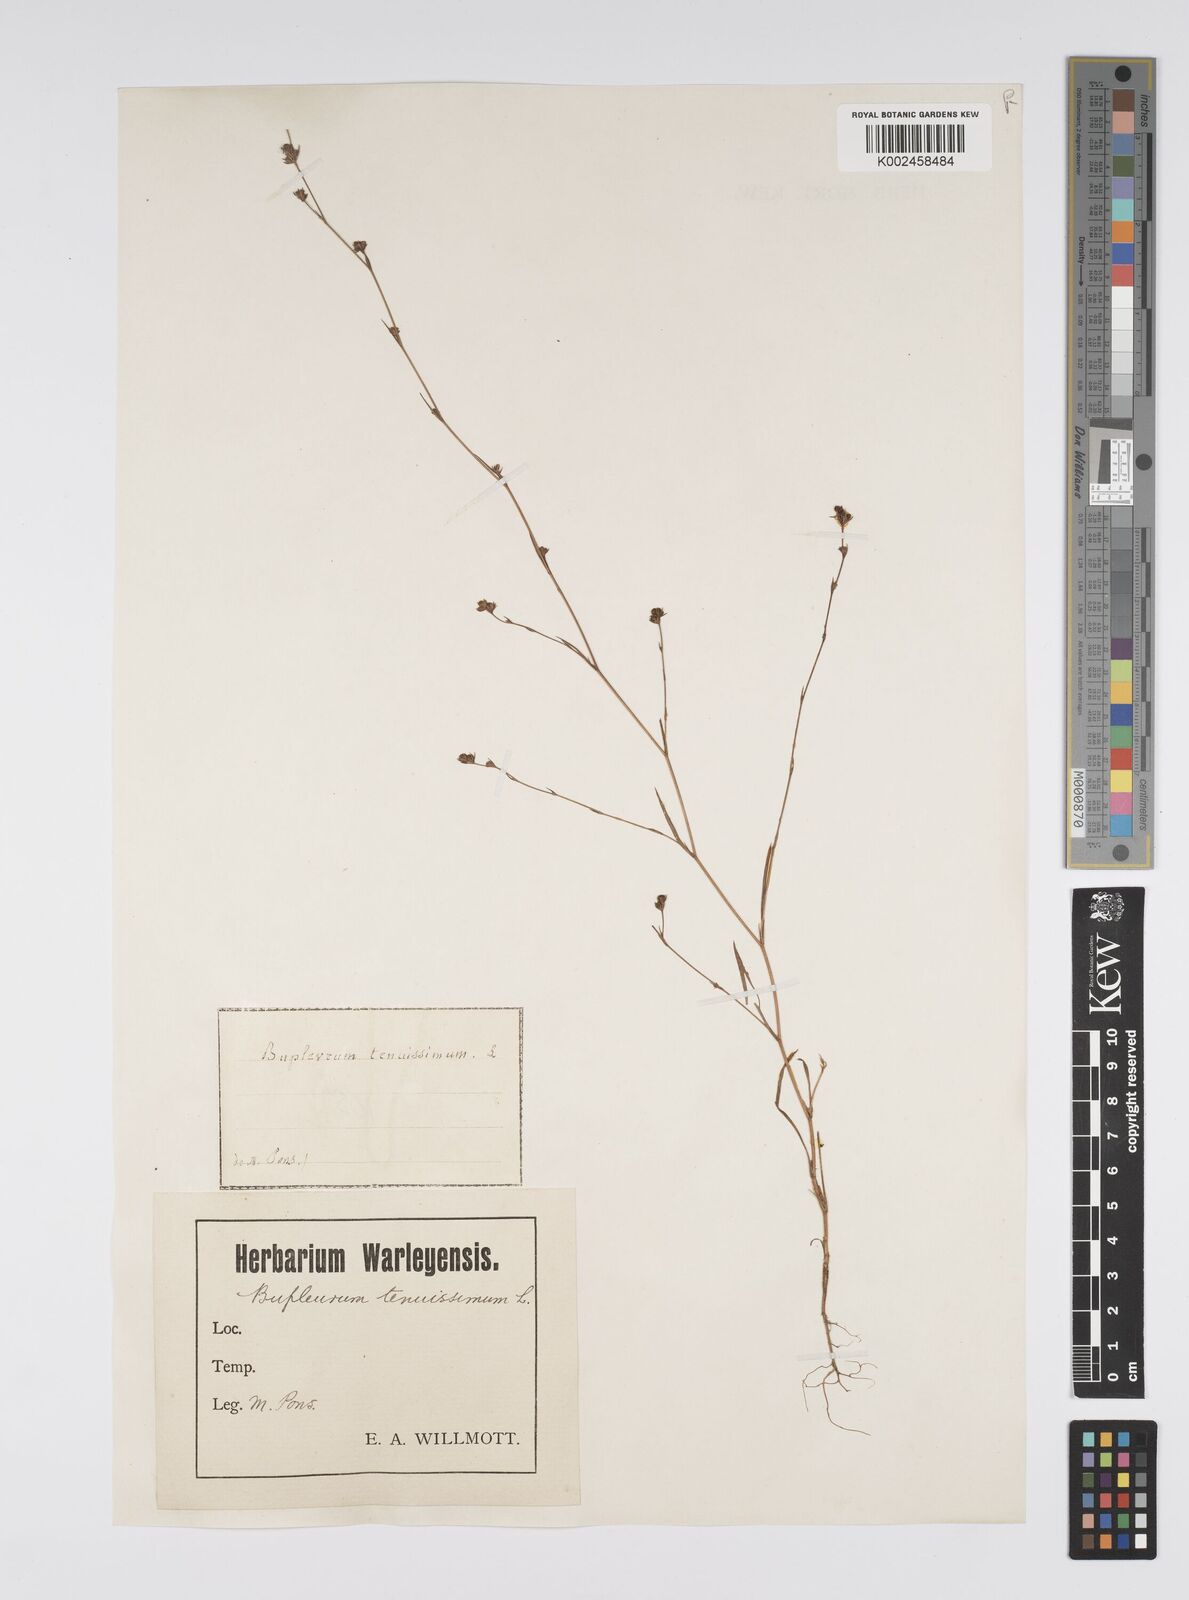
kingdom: Plantae
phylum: Tracheophyta
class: Magnoliopsida
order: Apiales
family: Apiaceae
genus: Bupleurum
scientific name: Bupleurum tenuissimum
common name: Slender hare's-ear
